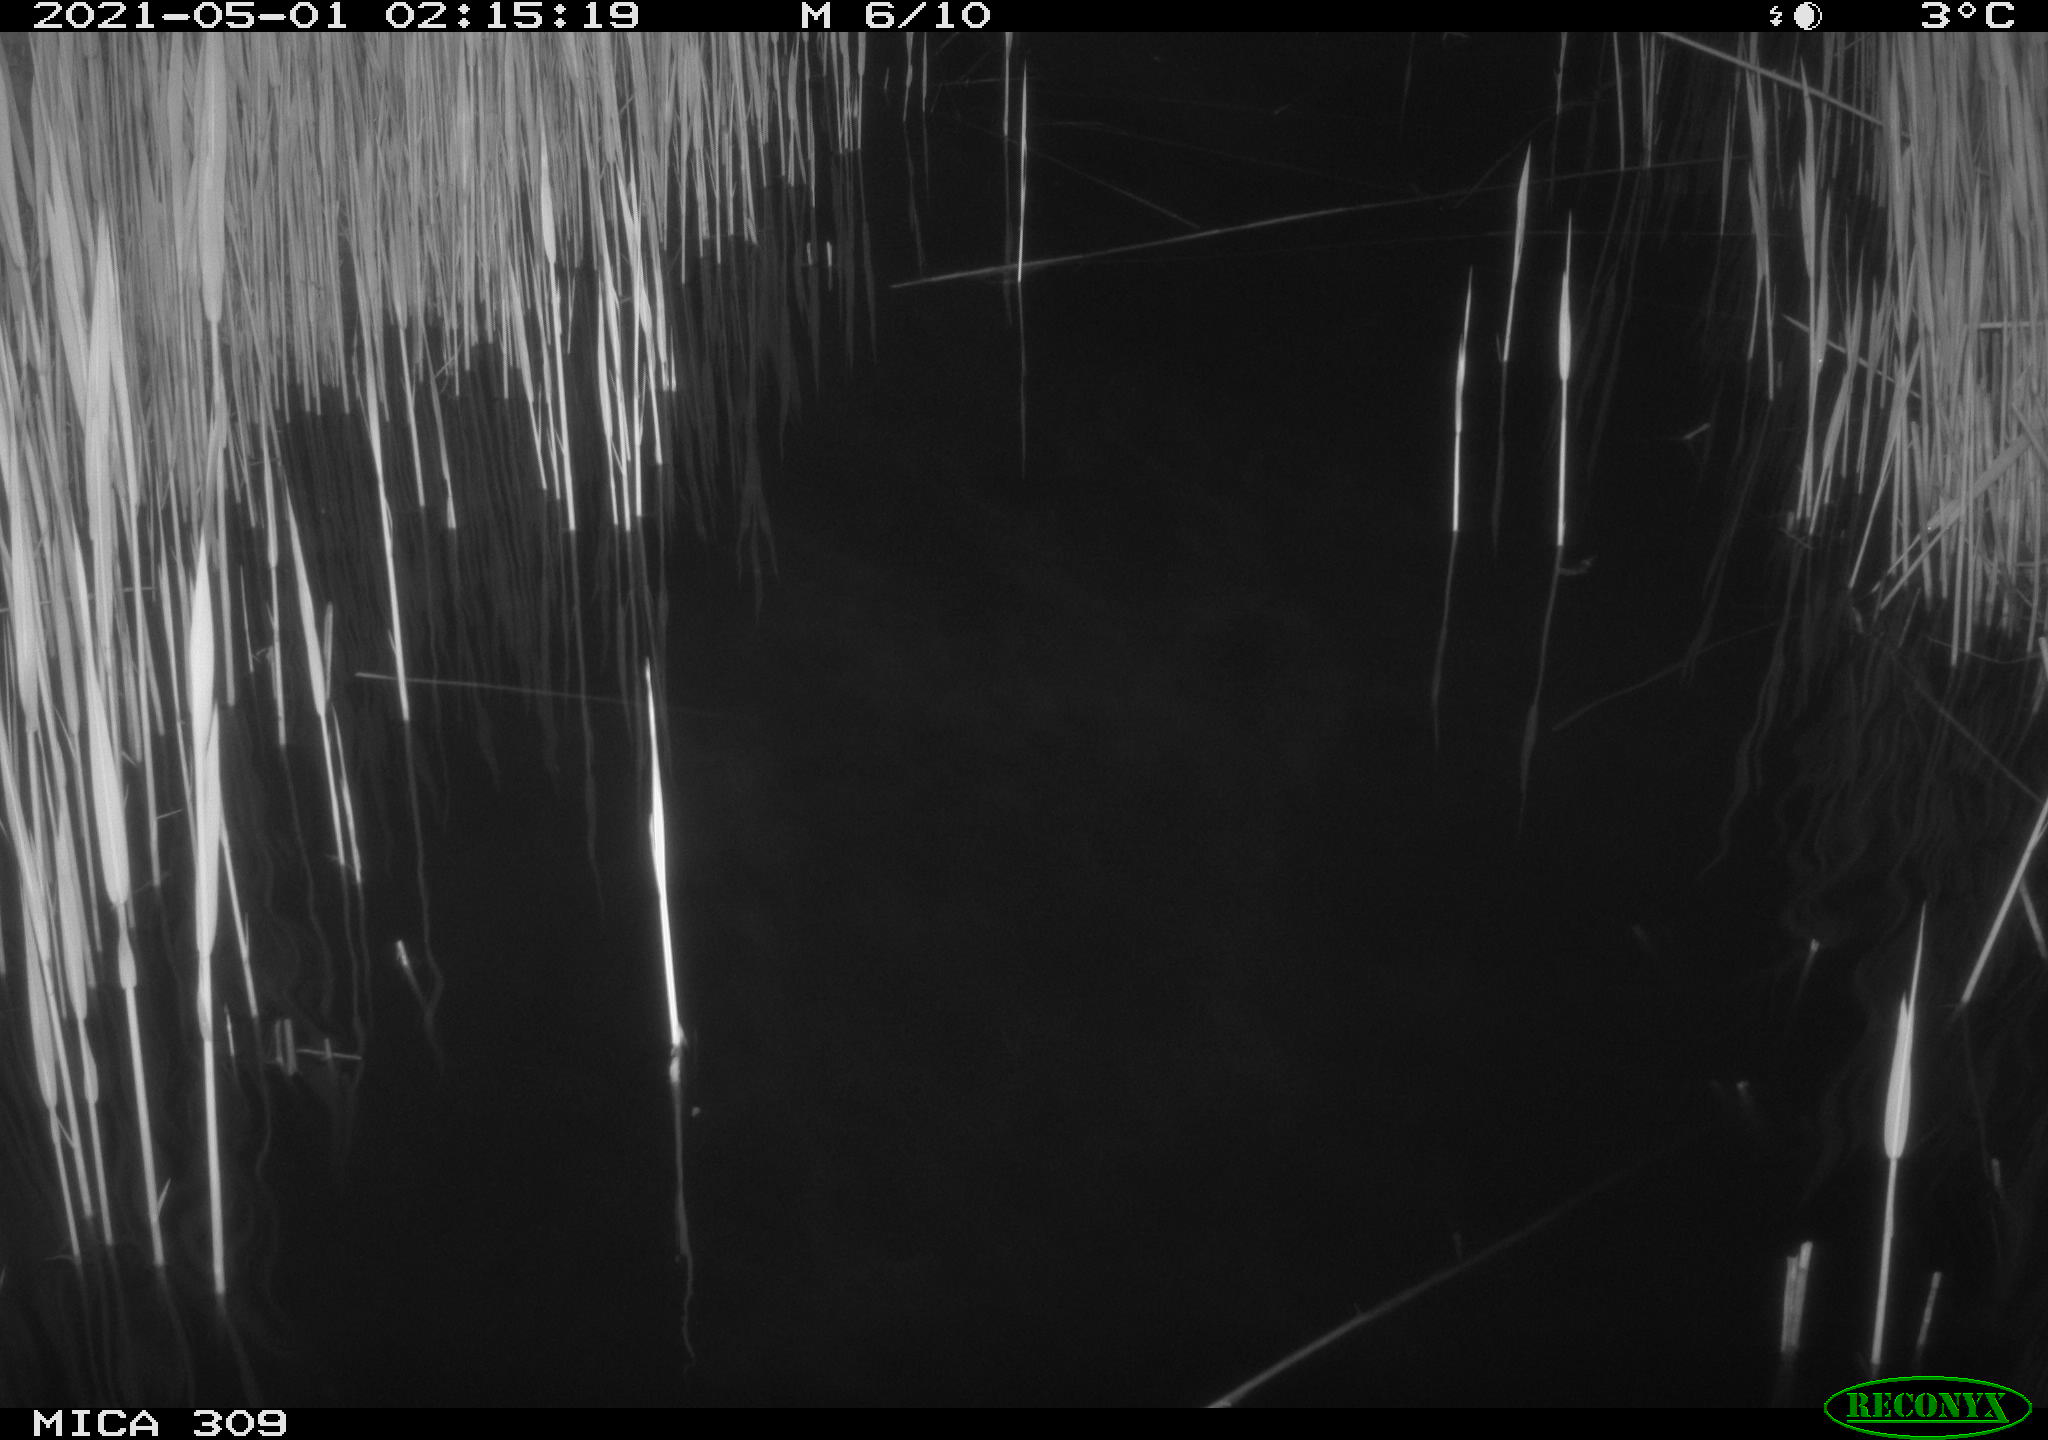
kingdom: Animalia
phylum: Chordata
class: Aves
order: Anseriformes
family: Anatidae
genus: Anas
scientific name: Anas platyrhynchos
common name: Mallard
